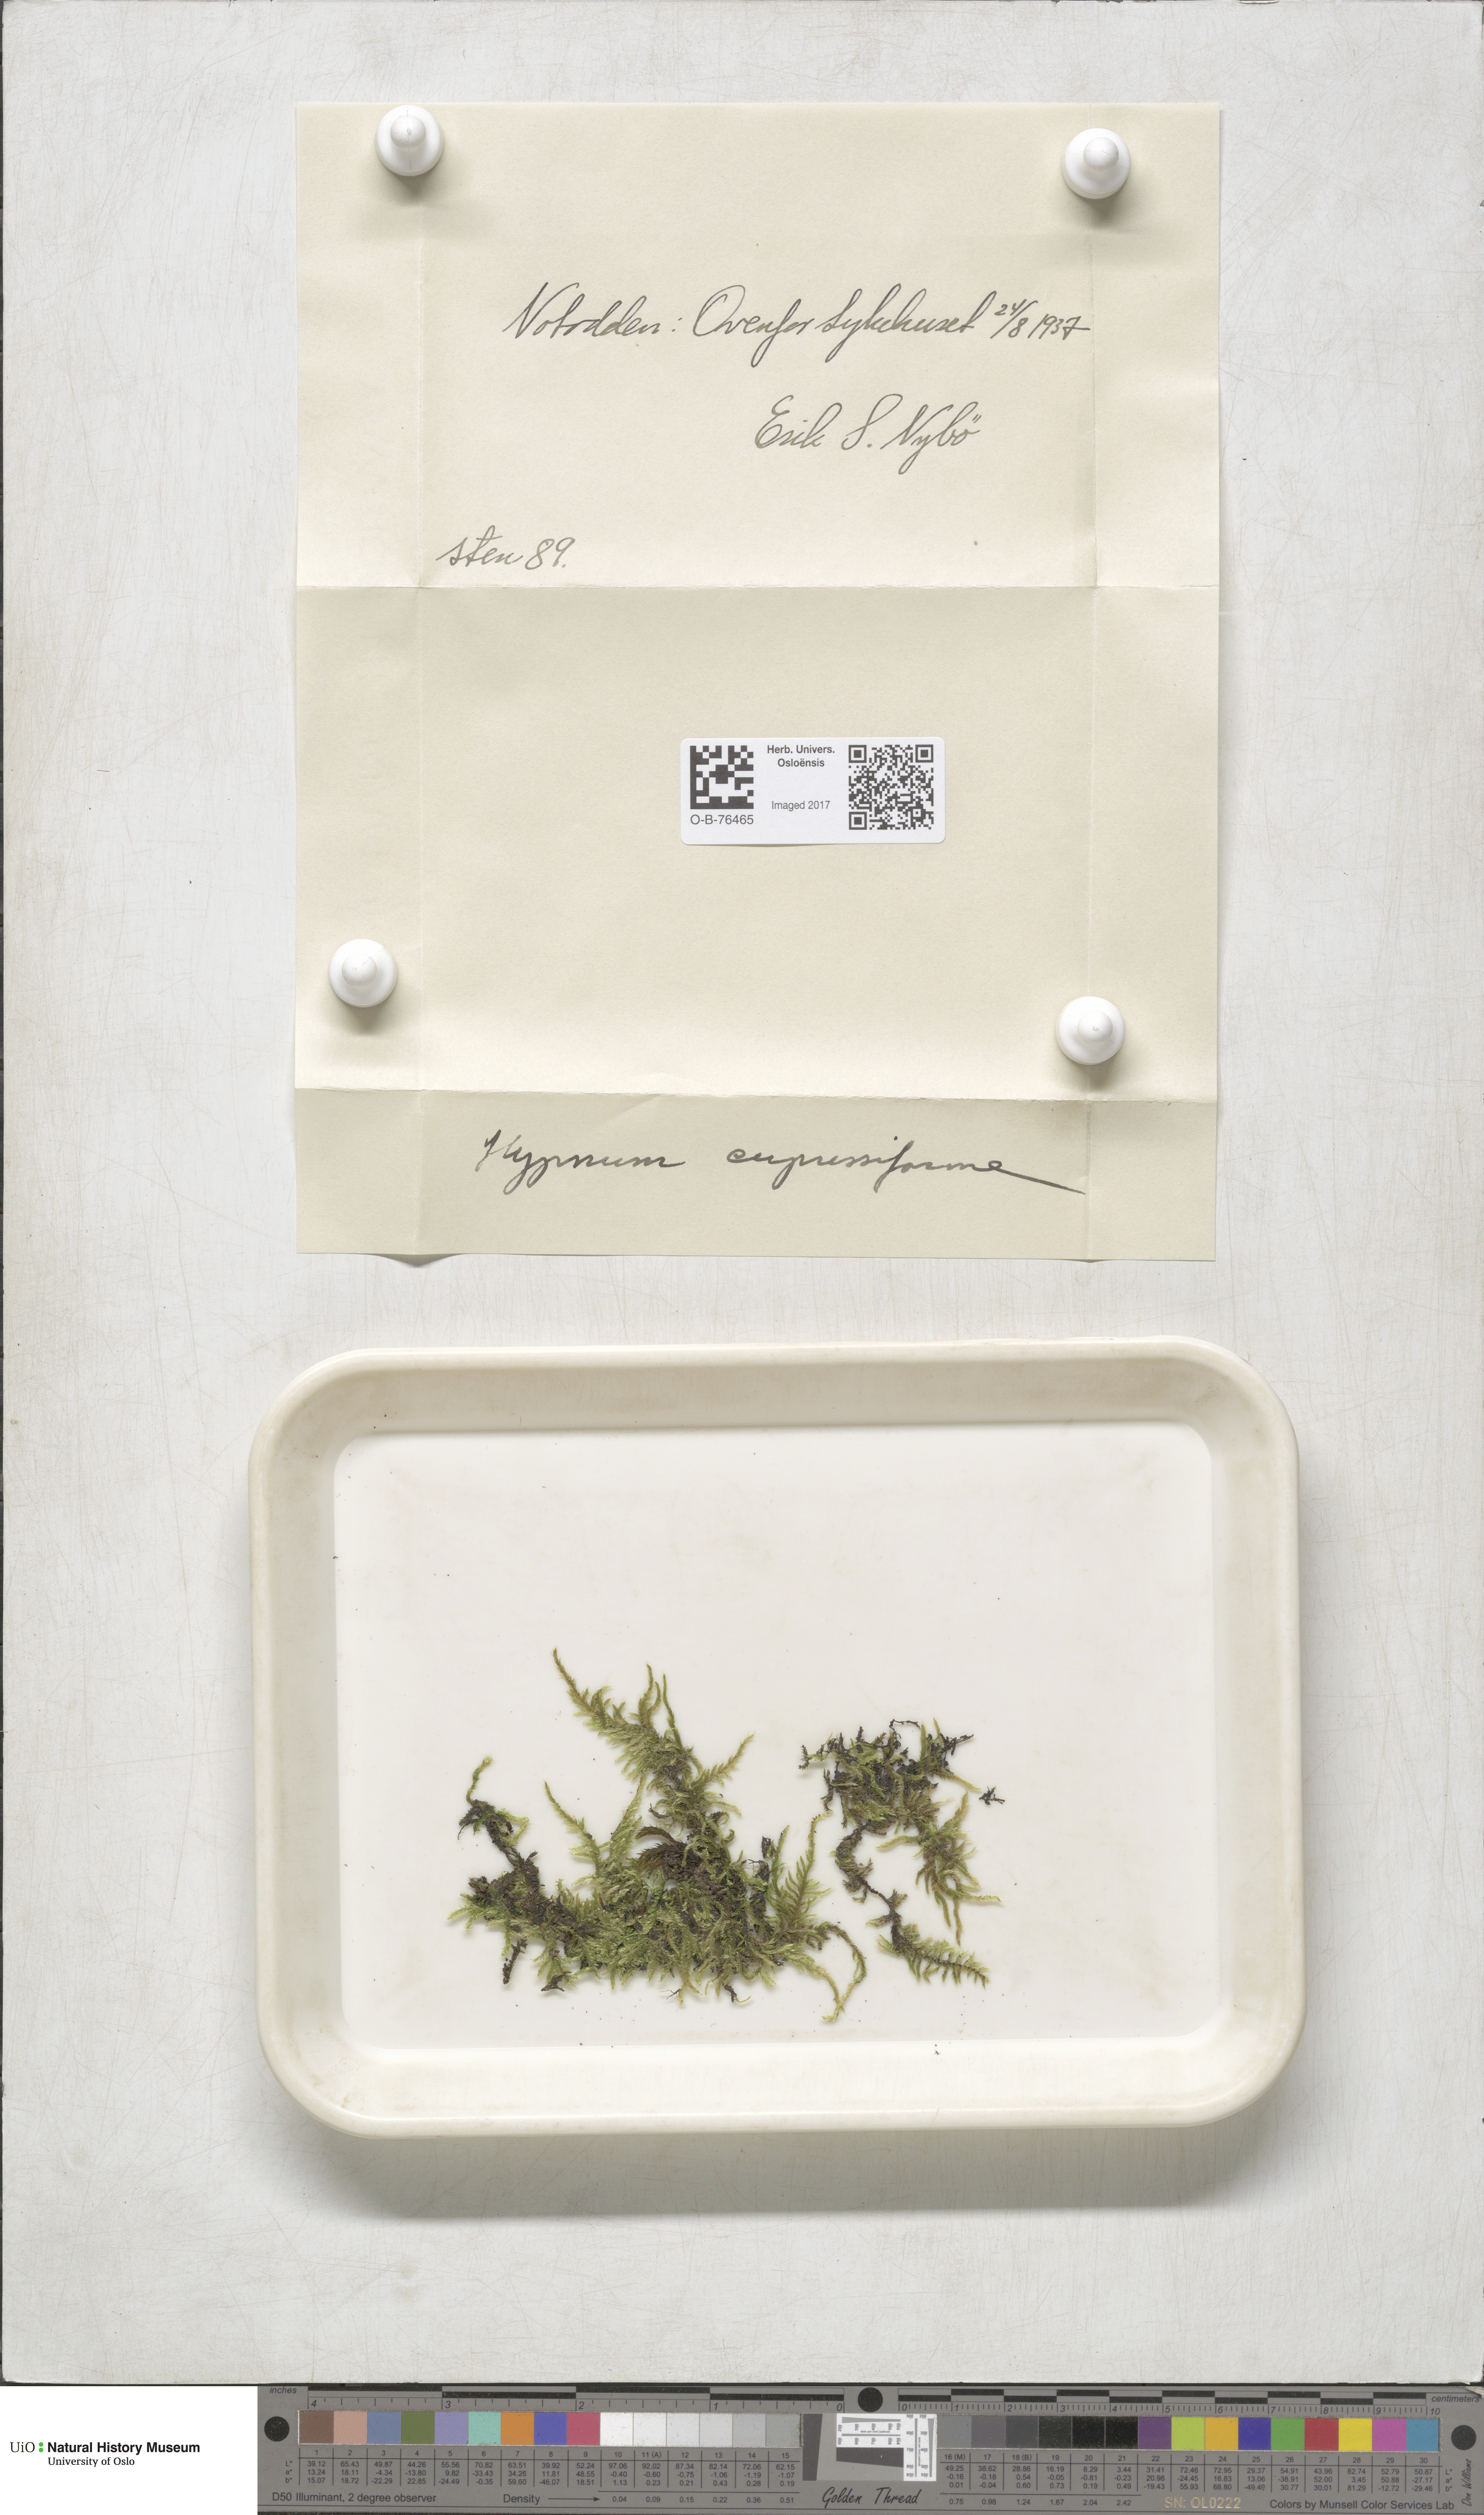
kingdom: Plantae
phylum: Bryophyta
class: Bryopsida
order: Hypnales
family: Hypnaceae
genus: Hypnum
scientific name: Hypnum cupressiforme
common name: Cypress-leaved plait-moss
